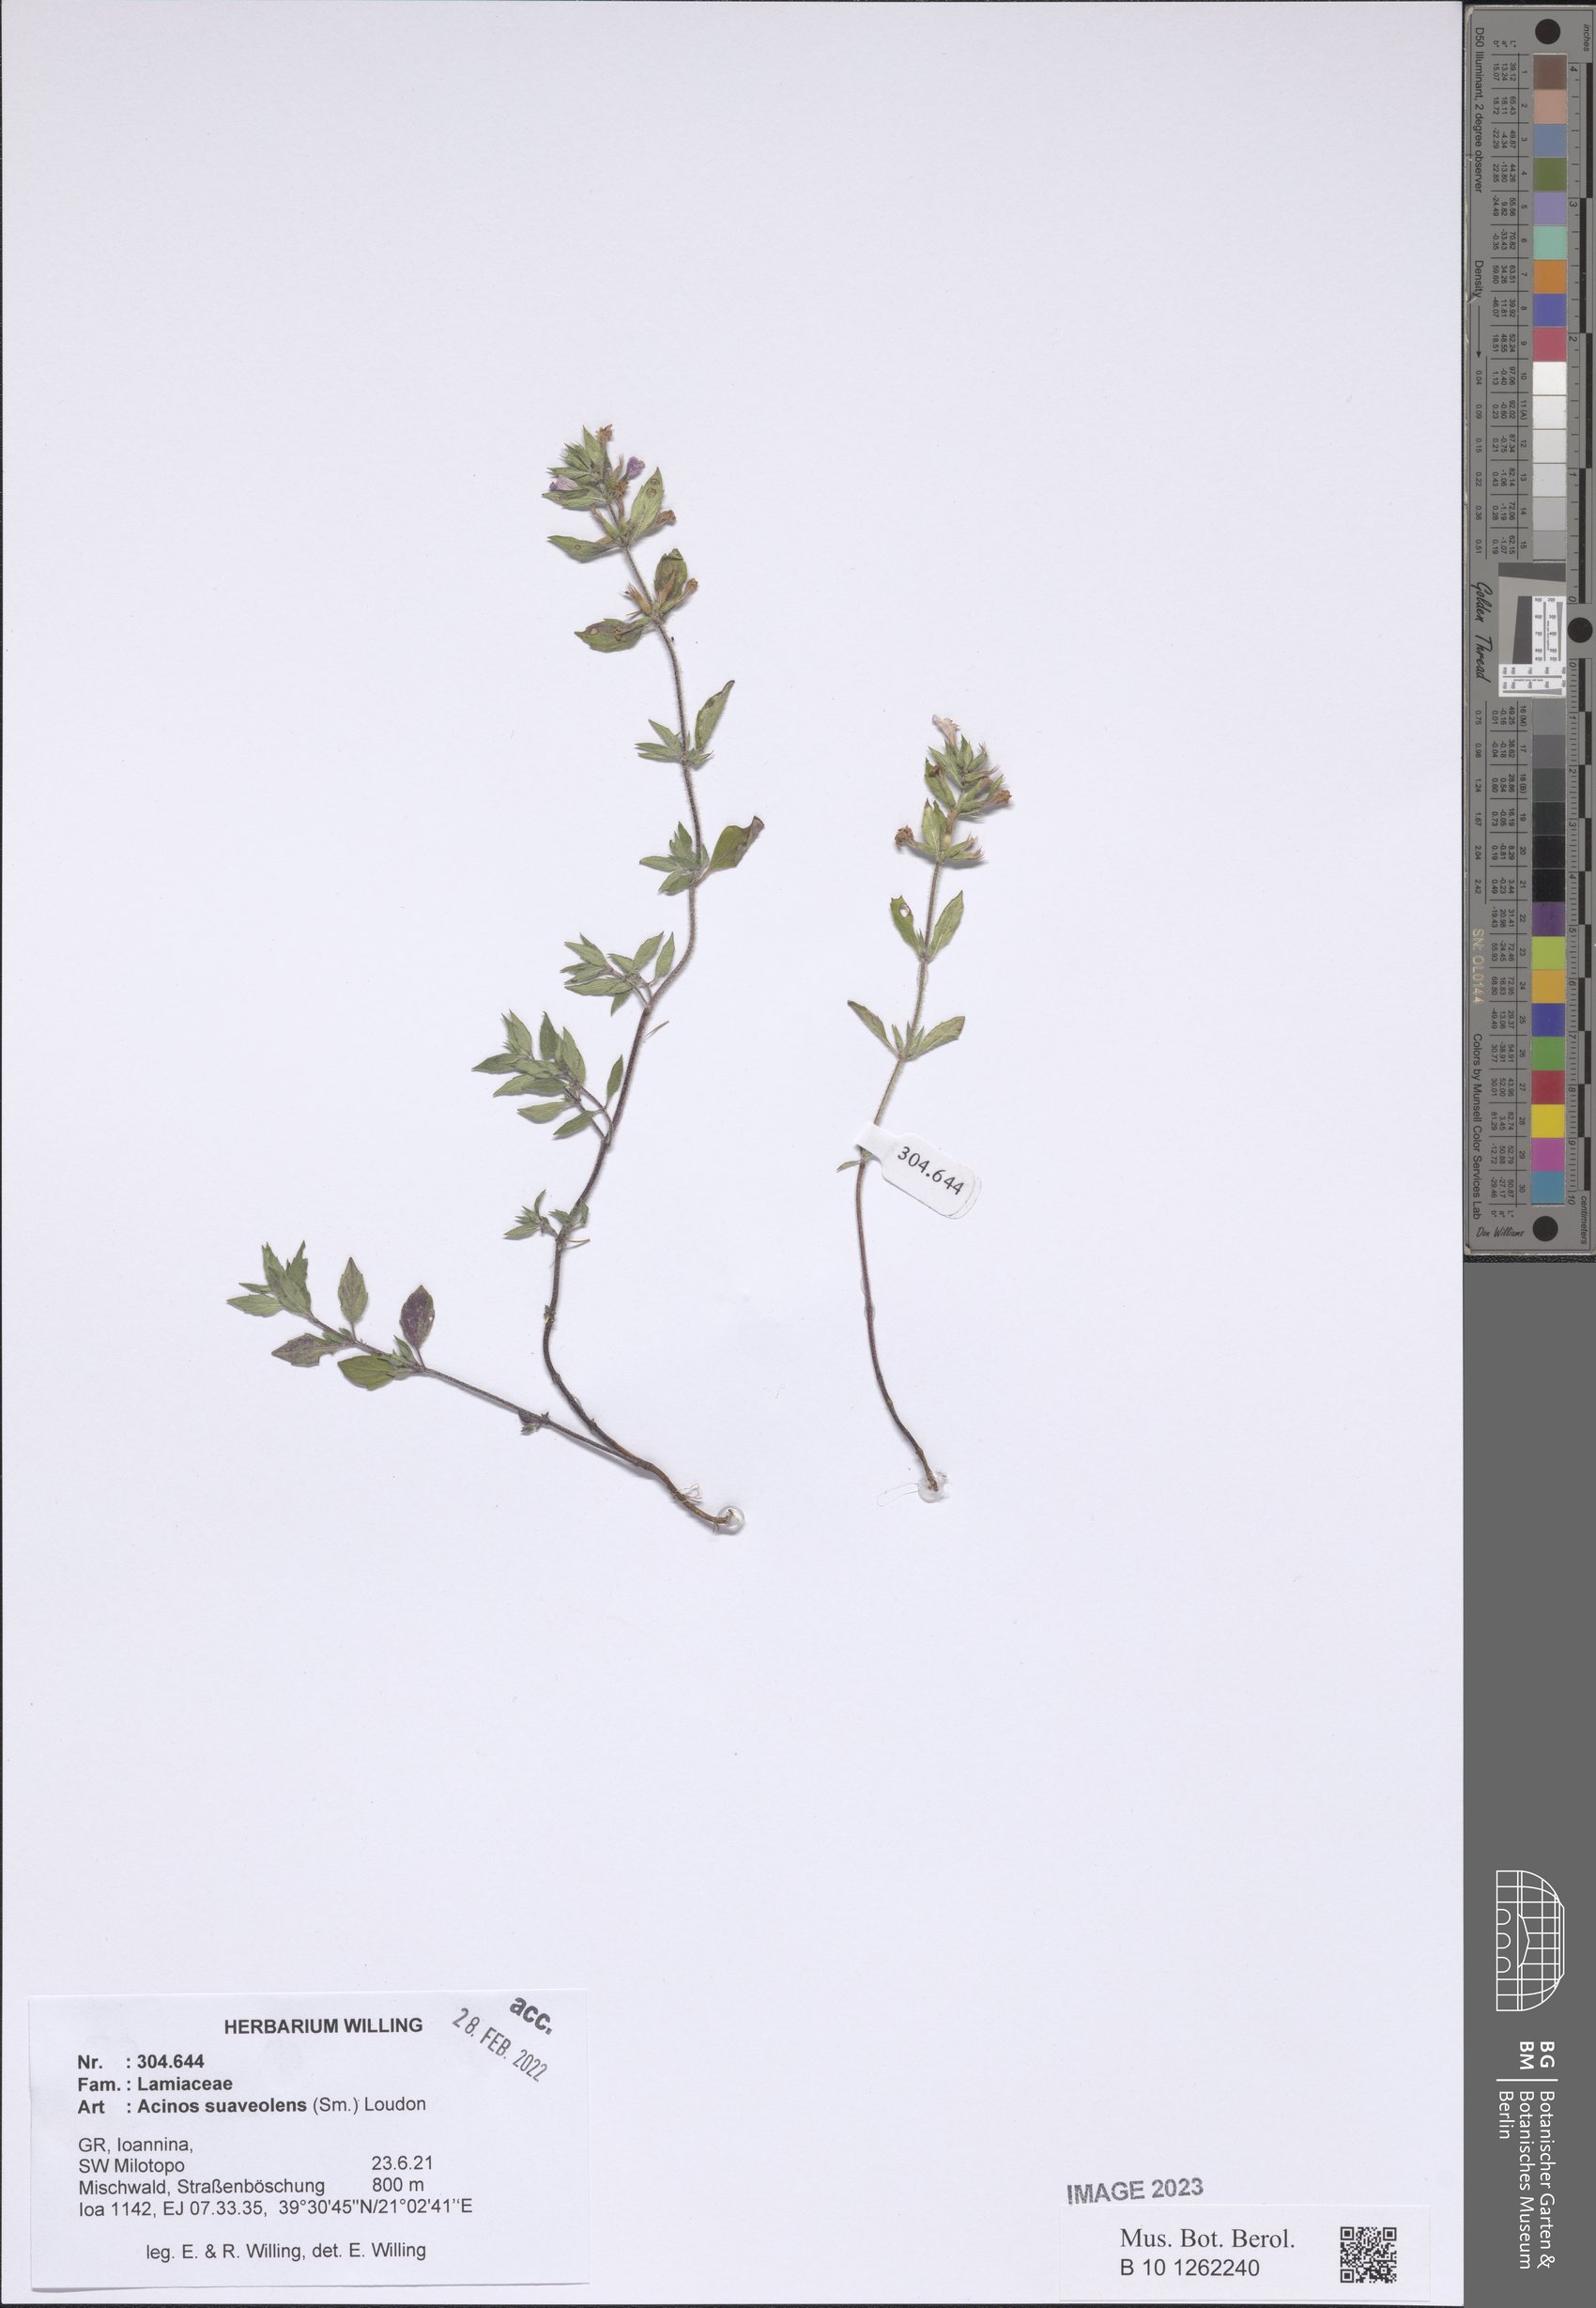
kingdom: Plantae
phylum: Tracheophyta
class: Magnoliopsida
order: Lamiales
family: Lamiaceae
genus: Clinopodium
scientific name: Clinopodium suaveolens
